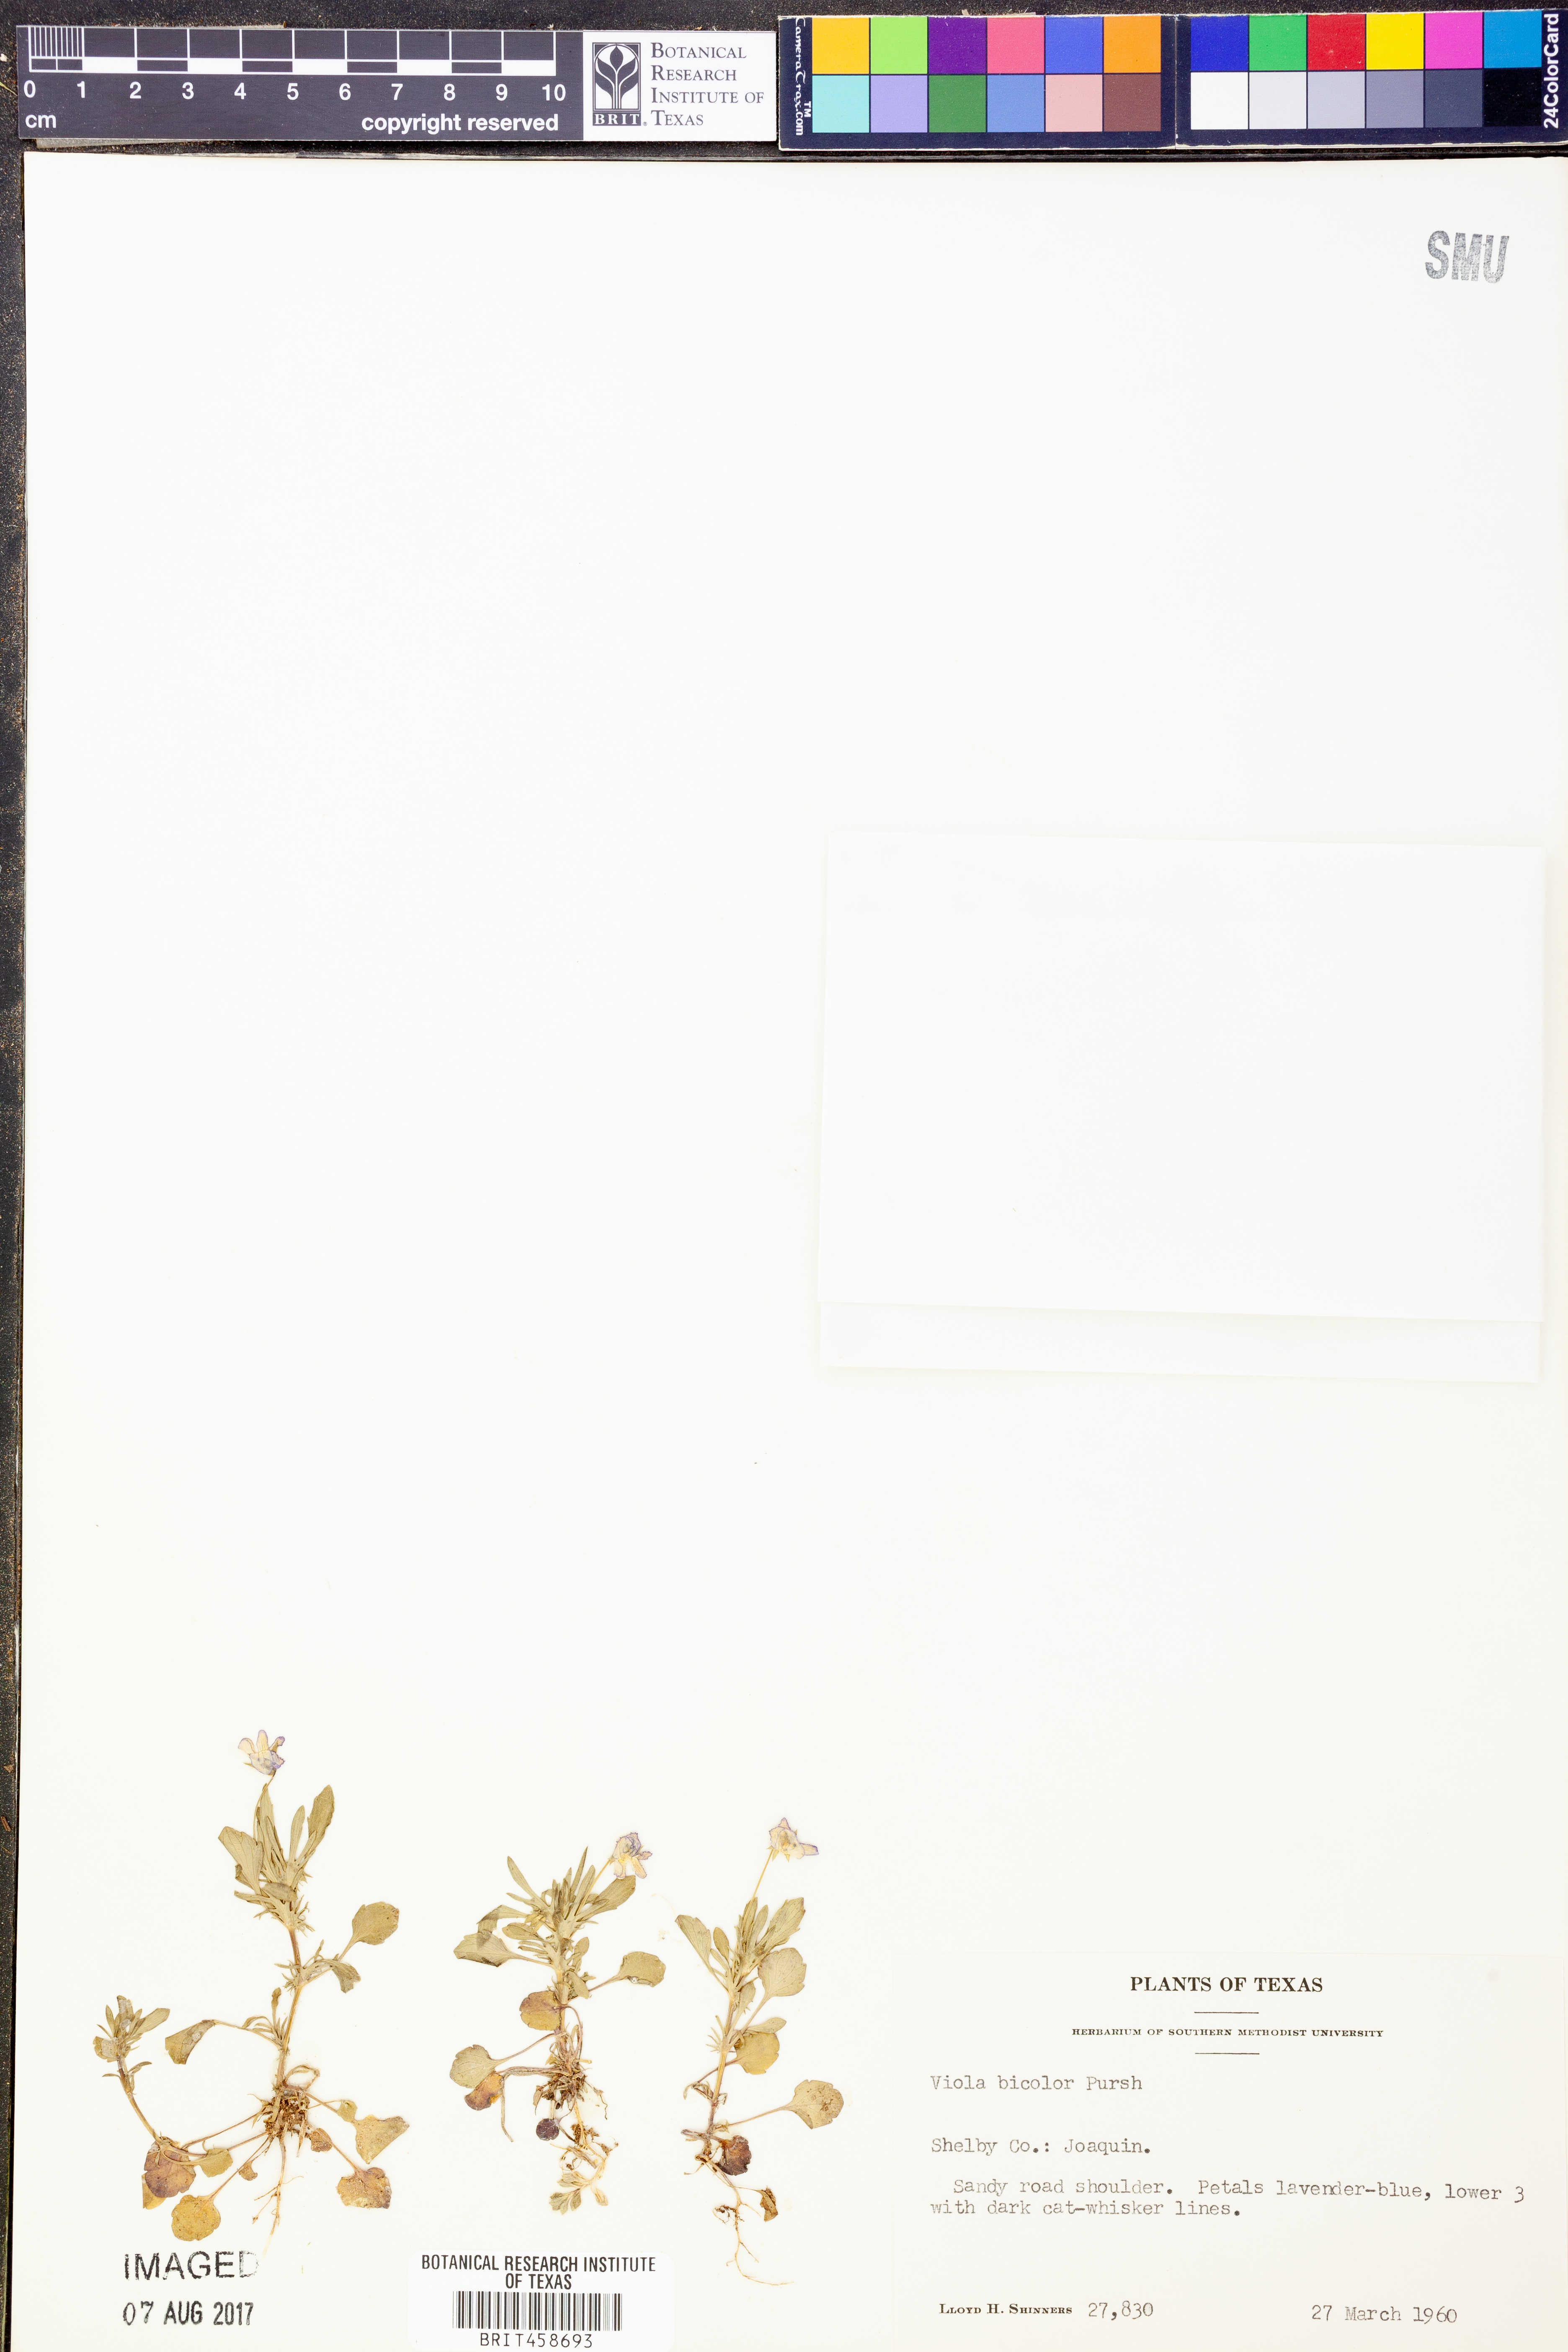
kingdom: Plantae
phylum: Tracheophyta
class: Magnoliopsida
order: Malpighiales
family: Violaceae
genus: Viola
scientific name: Viola rafinesquei
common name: American field pansy
